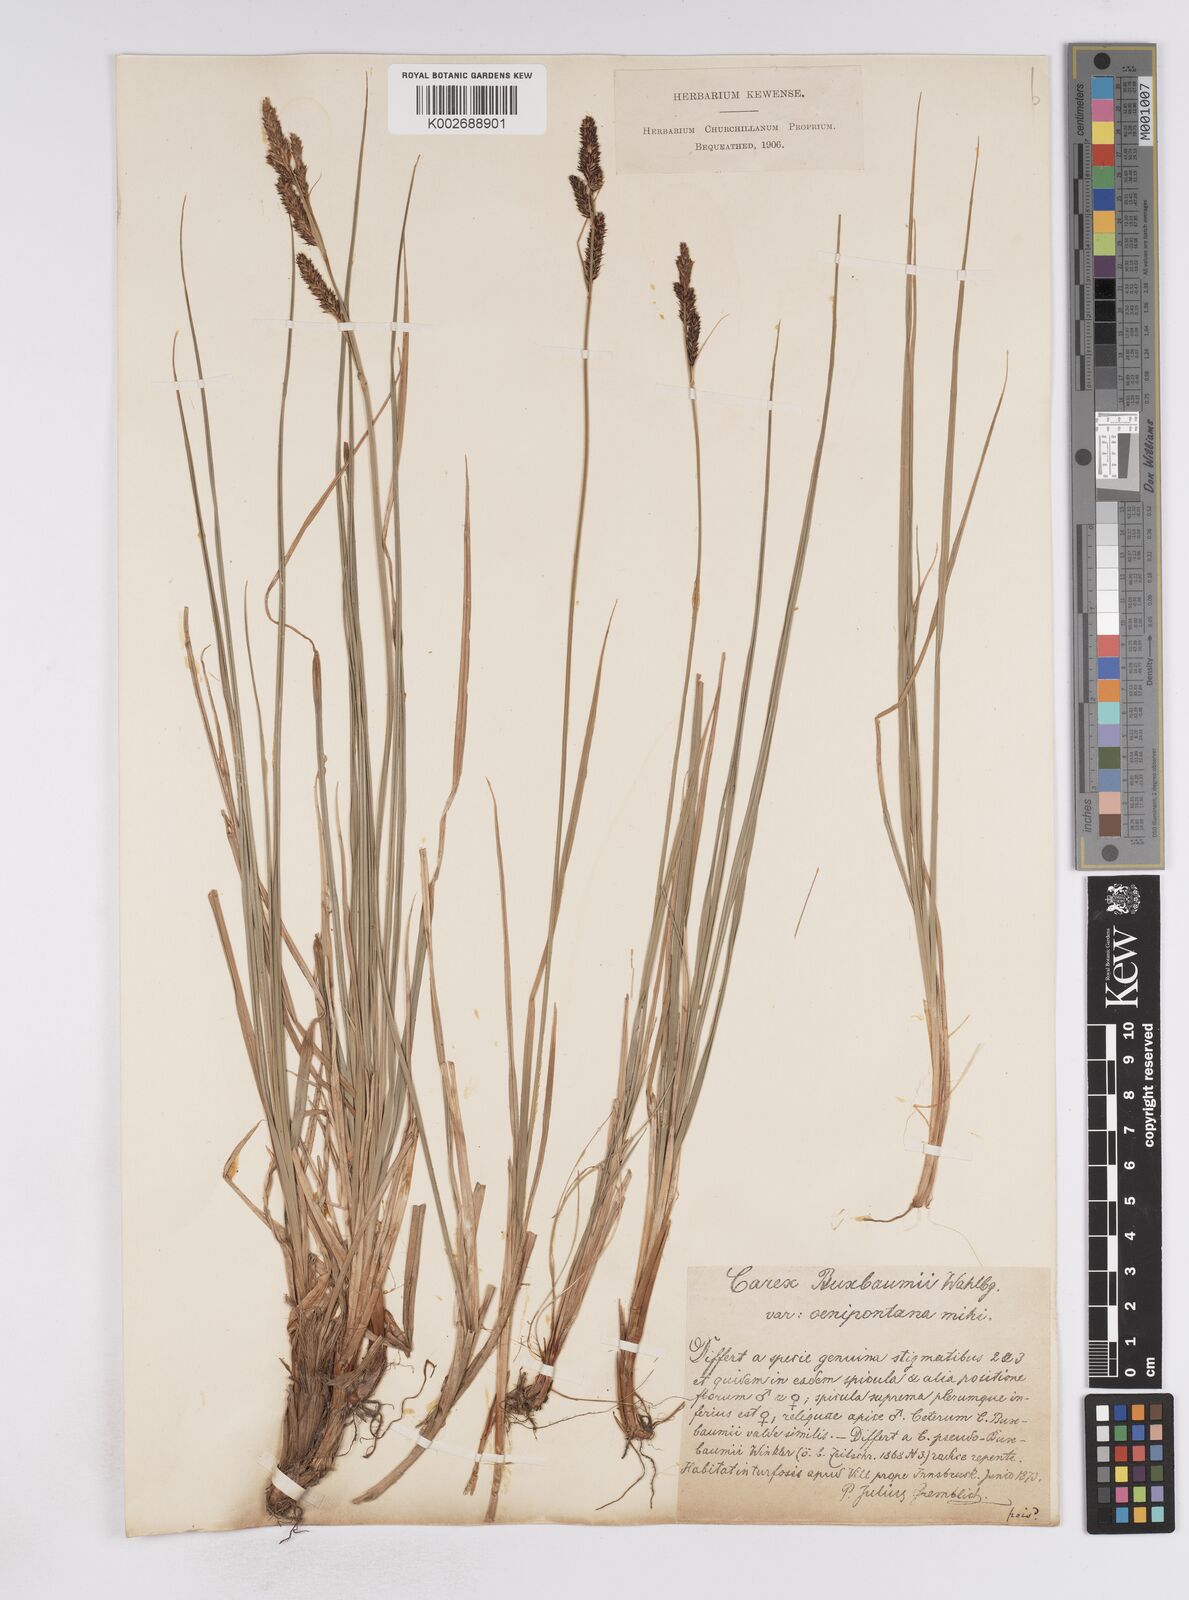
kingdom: Plantae
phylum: Tracheophyta
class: Liliopsida
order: Poales
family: Cyperaceae
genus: Carex
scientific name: Carex buxbaumii
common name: Club sedge
